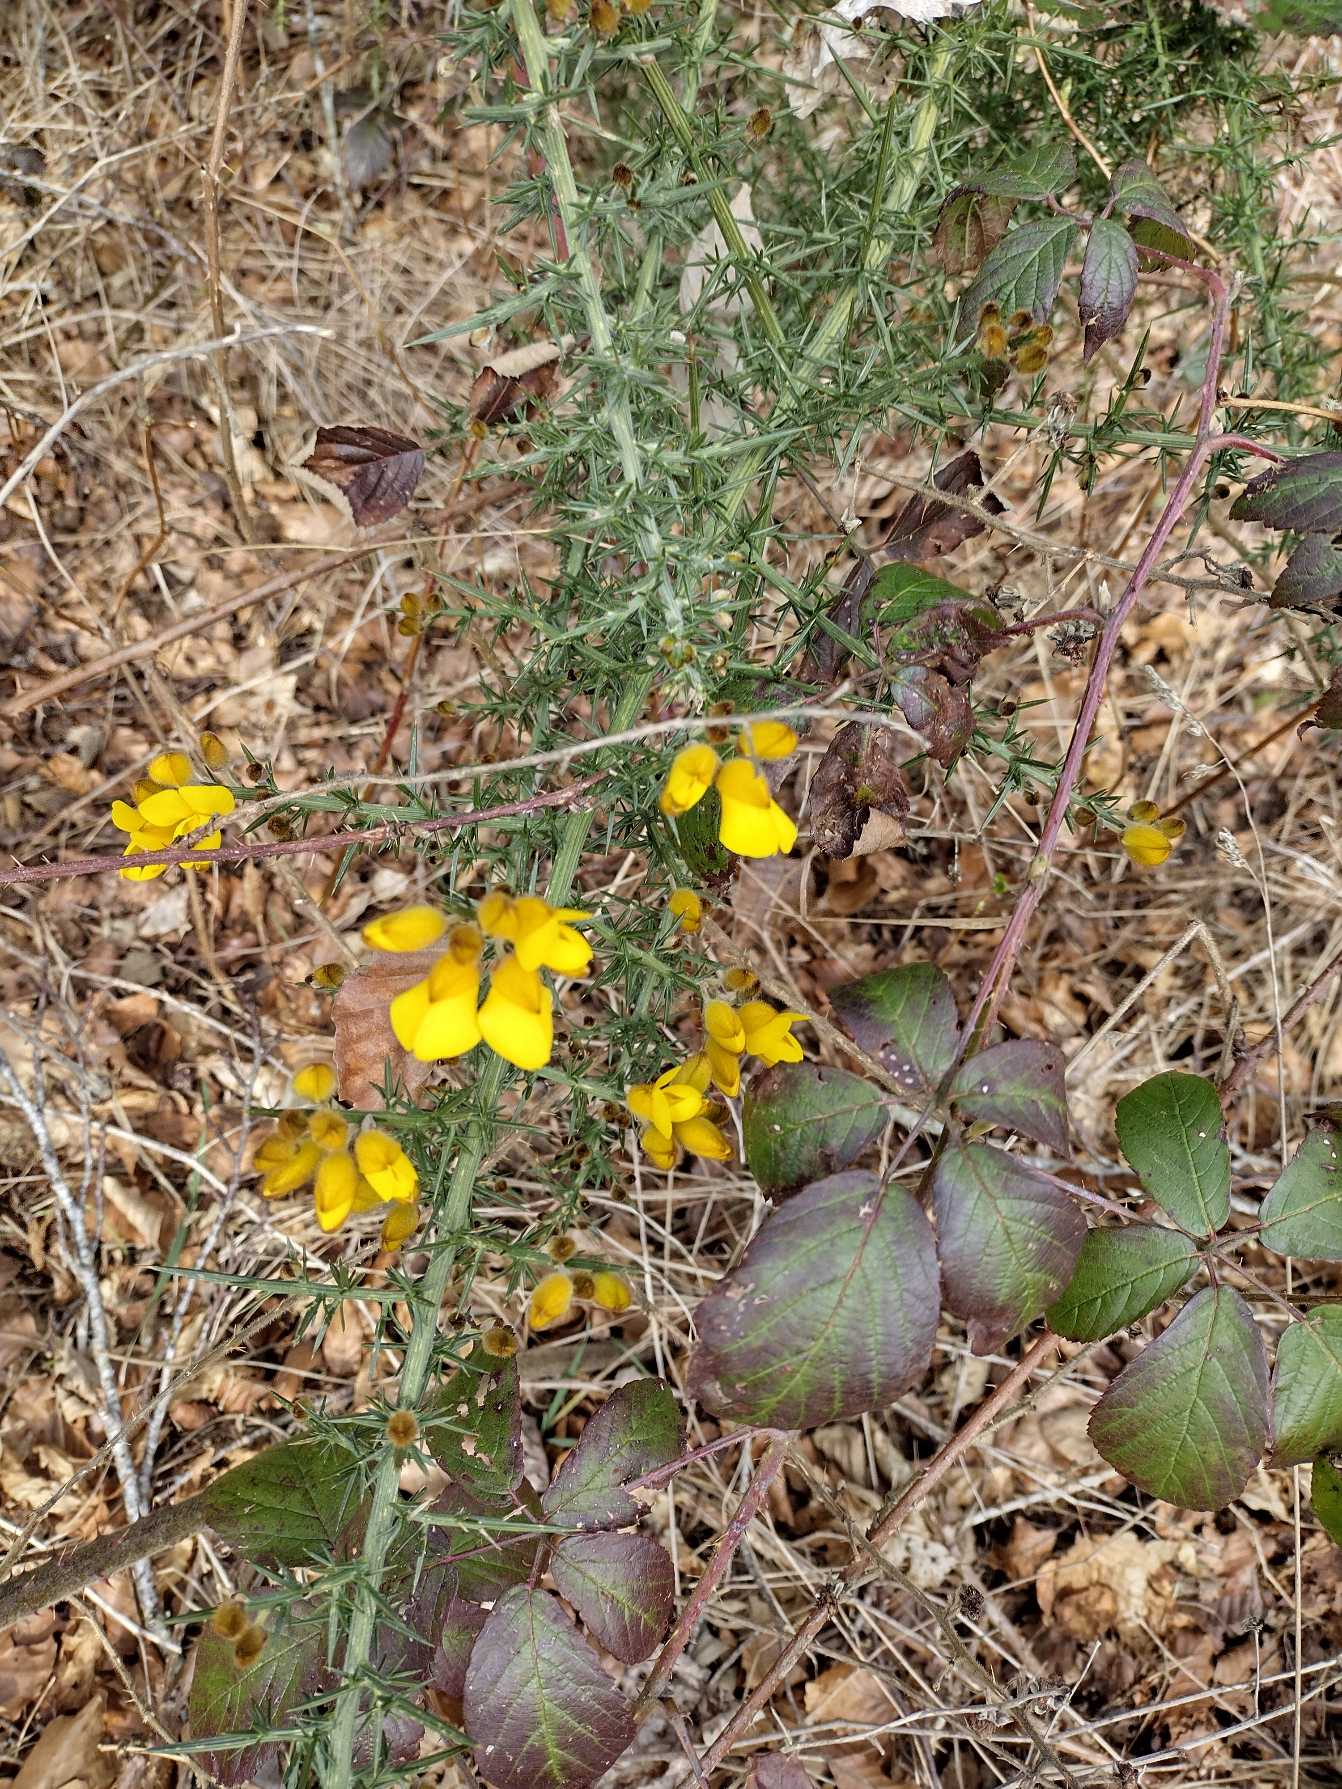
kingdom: Plantae
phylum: Tracheophyta
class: Magnoliopsida
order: Fabales
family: Fabaceae
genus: Ulex
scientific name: Ulex europaeus
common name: Tornblad
